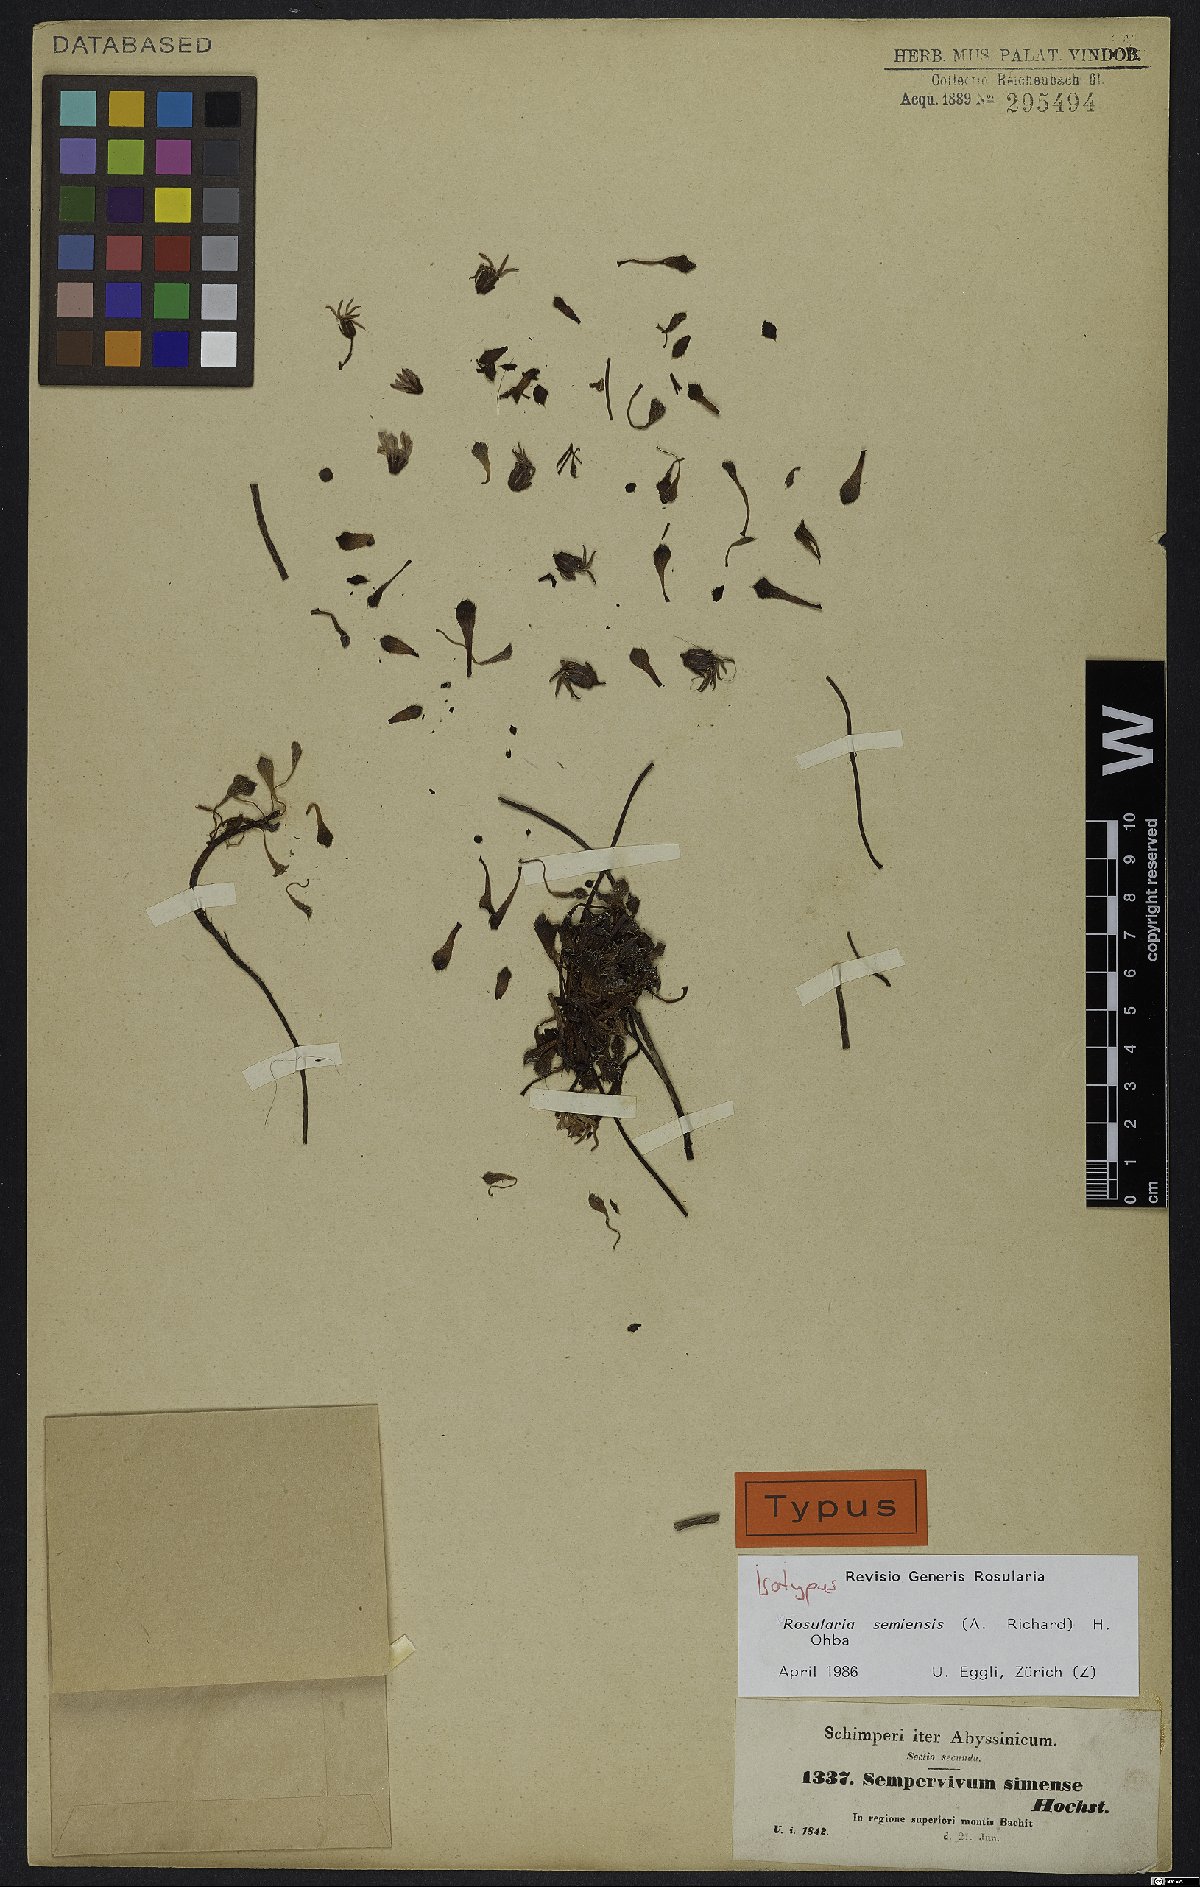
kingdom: Plantae
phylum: Tracheophyta
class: Magnoliopsida
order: Saxifragales
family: Crassulaceae
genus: Afrovivella
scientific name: Afrovivella semiensis
